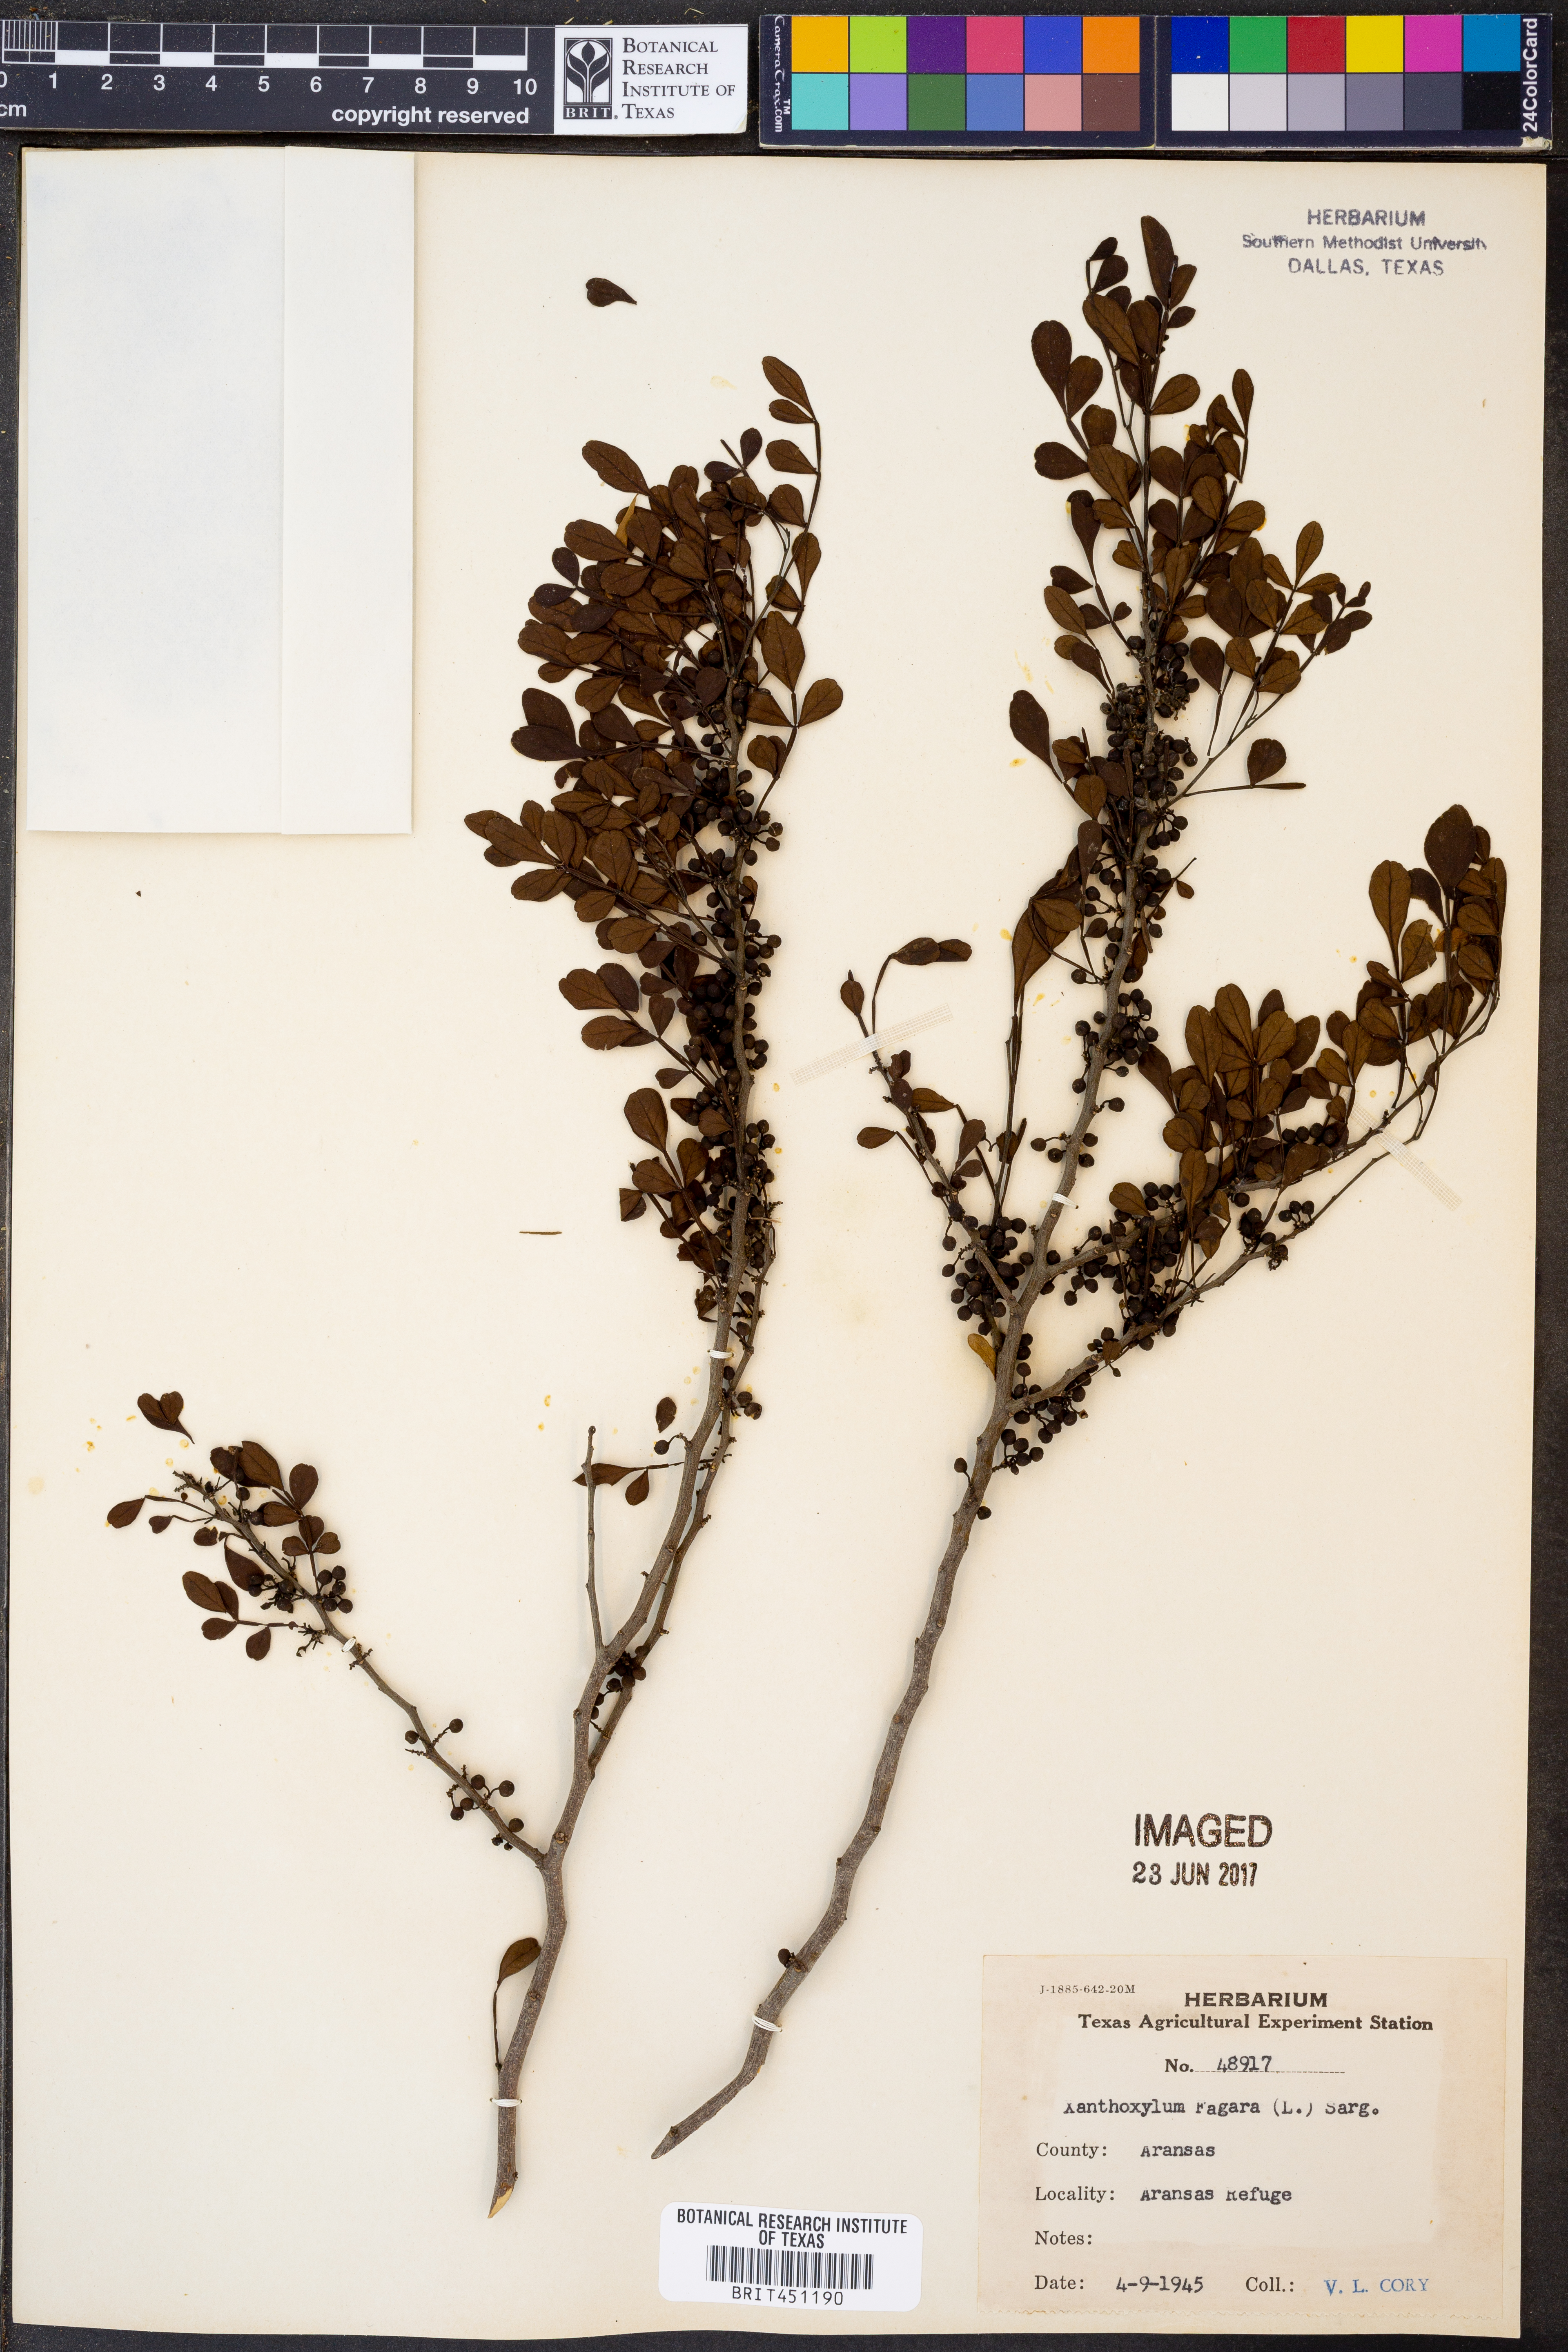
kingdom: Plantae
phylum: Tracheophyta
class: Magnoliopsida
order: Sapindales
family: Rutaceae
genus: Zanthoxylum
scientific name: Zanthoxylum fagara
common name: Lime prickly-ash
